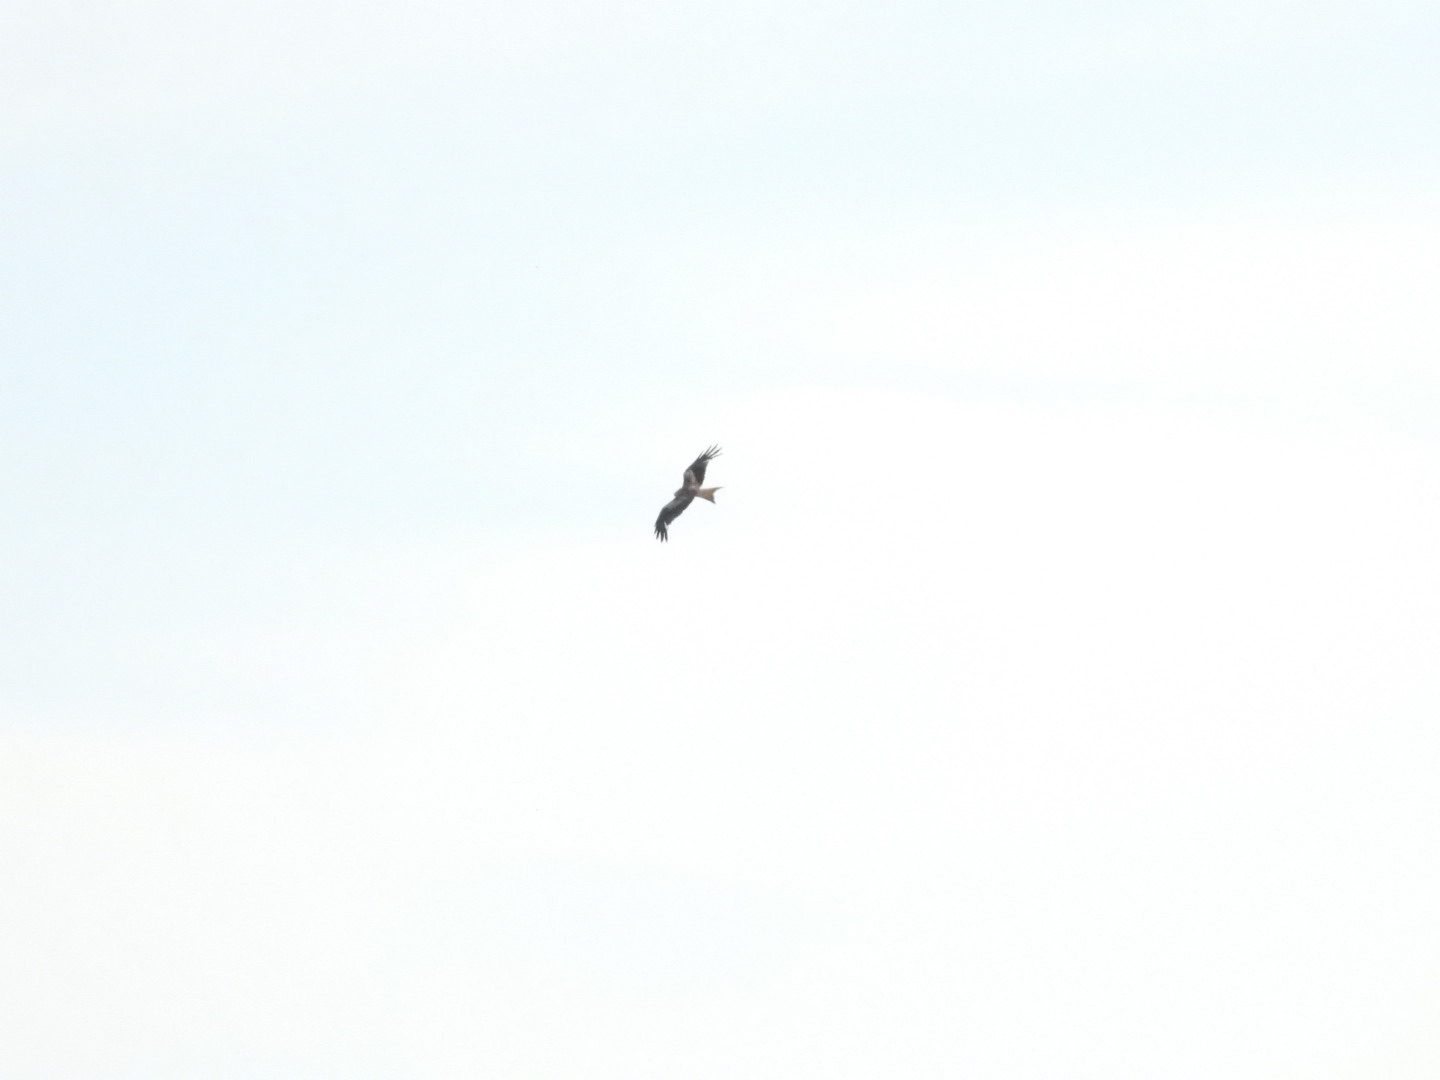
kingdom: Animalia
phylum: Chordata
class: Aves
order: Accipitriformes
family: Accipitridae
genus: Milvus
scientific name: Milvus milvus
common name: Rød glente
